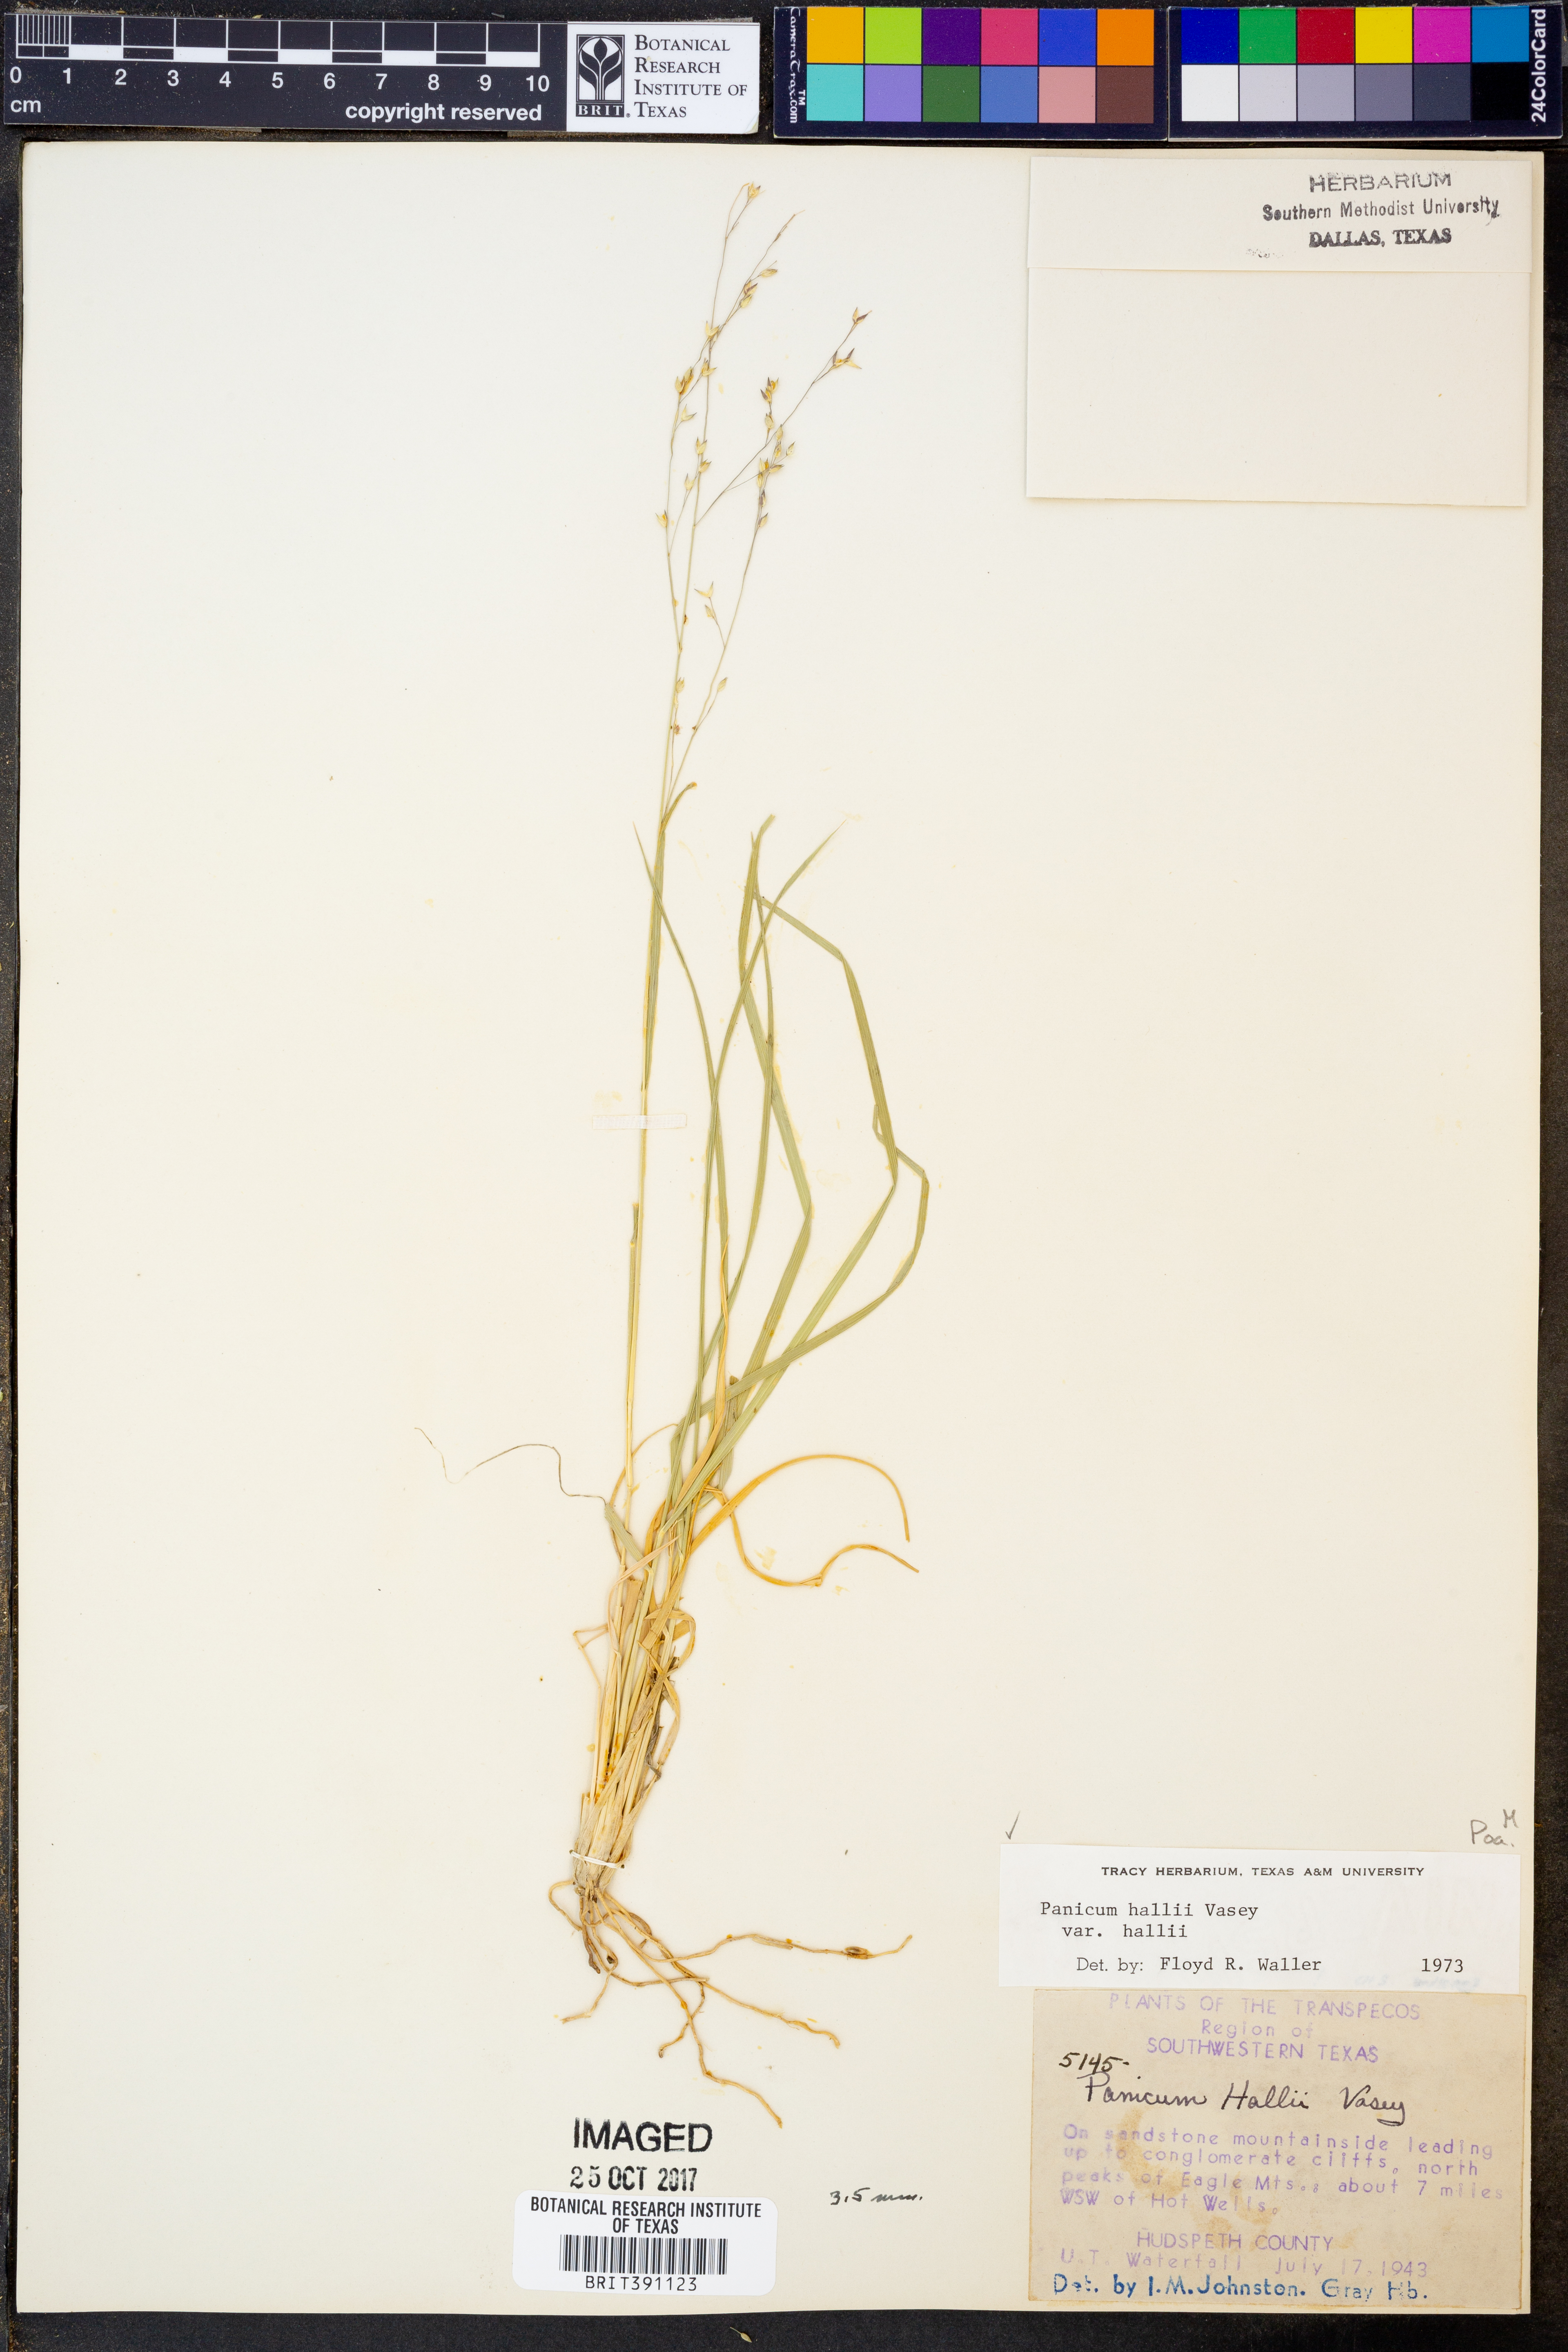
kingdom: Plantae
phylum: Tracheophyta
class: Liliopsida
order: Poales
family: Poaceae
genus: Panicum
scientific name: Panicum hallii
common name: Hall's witchgrass
